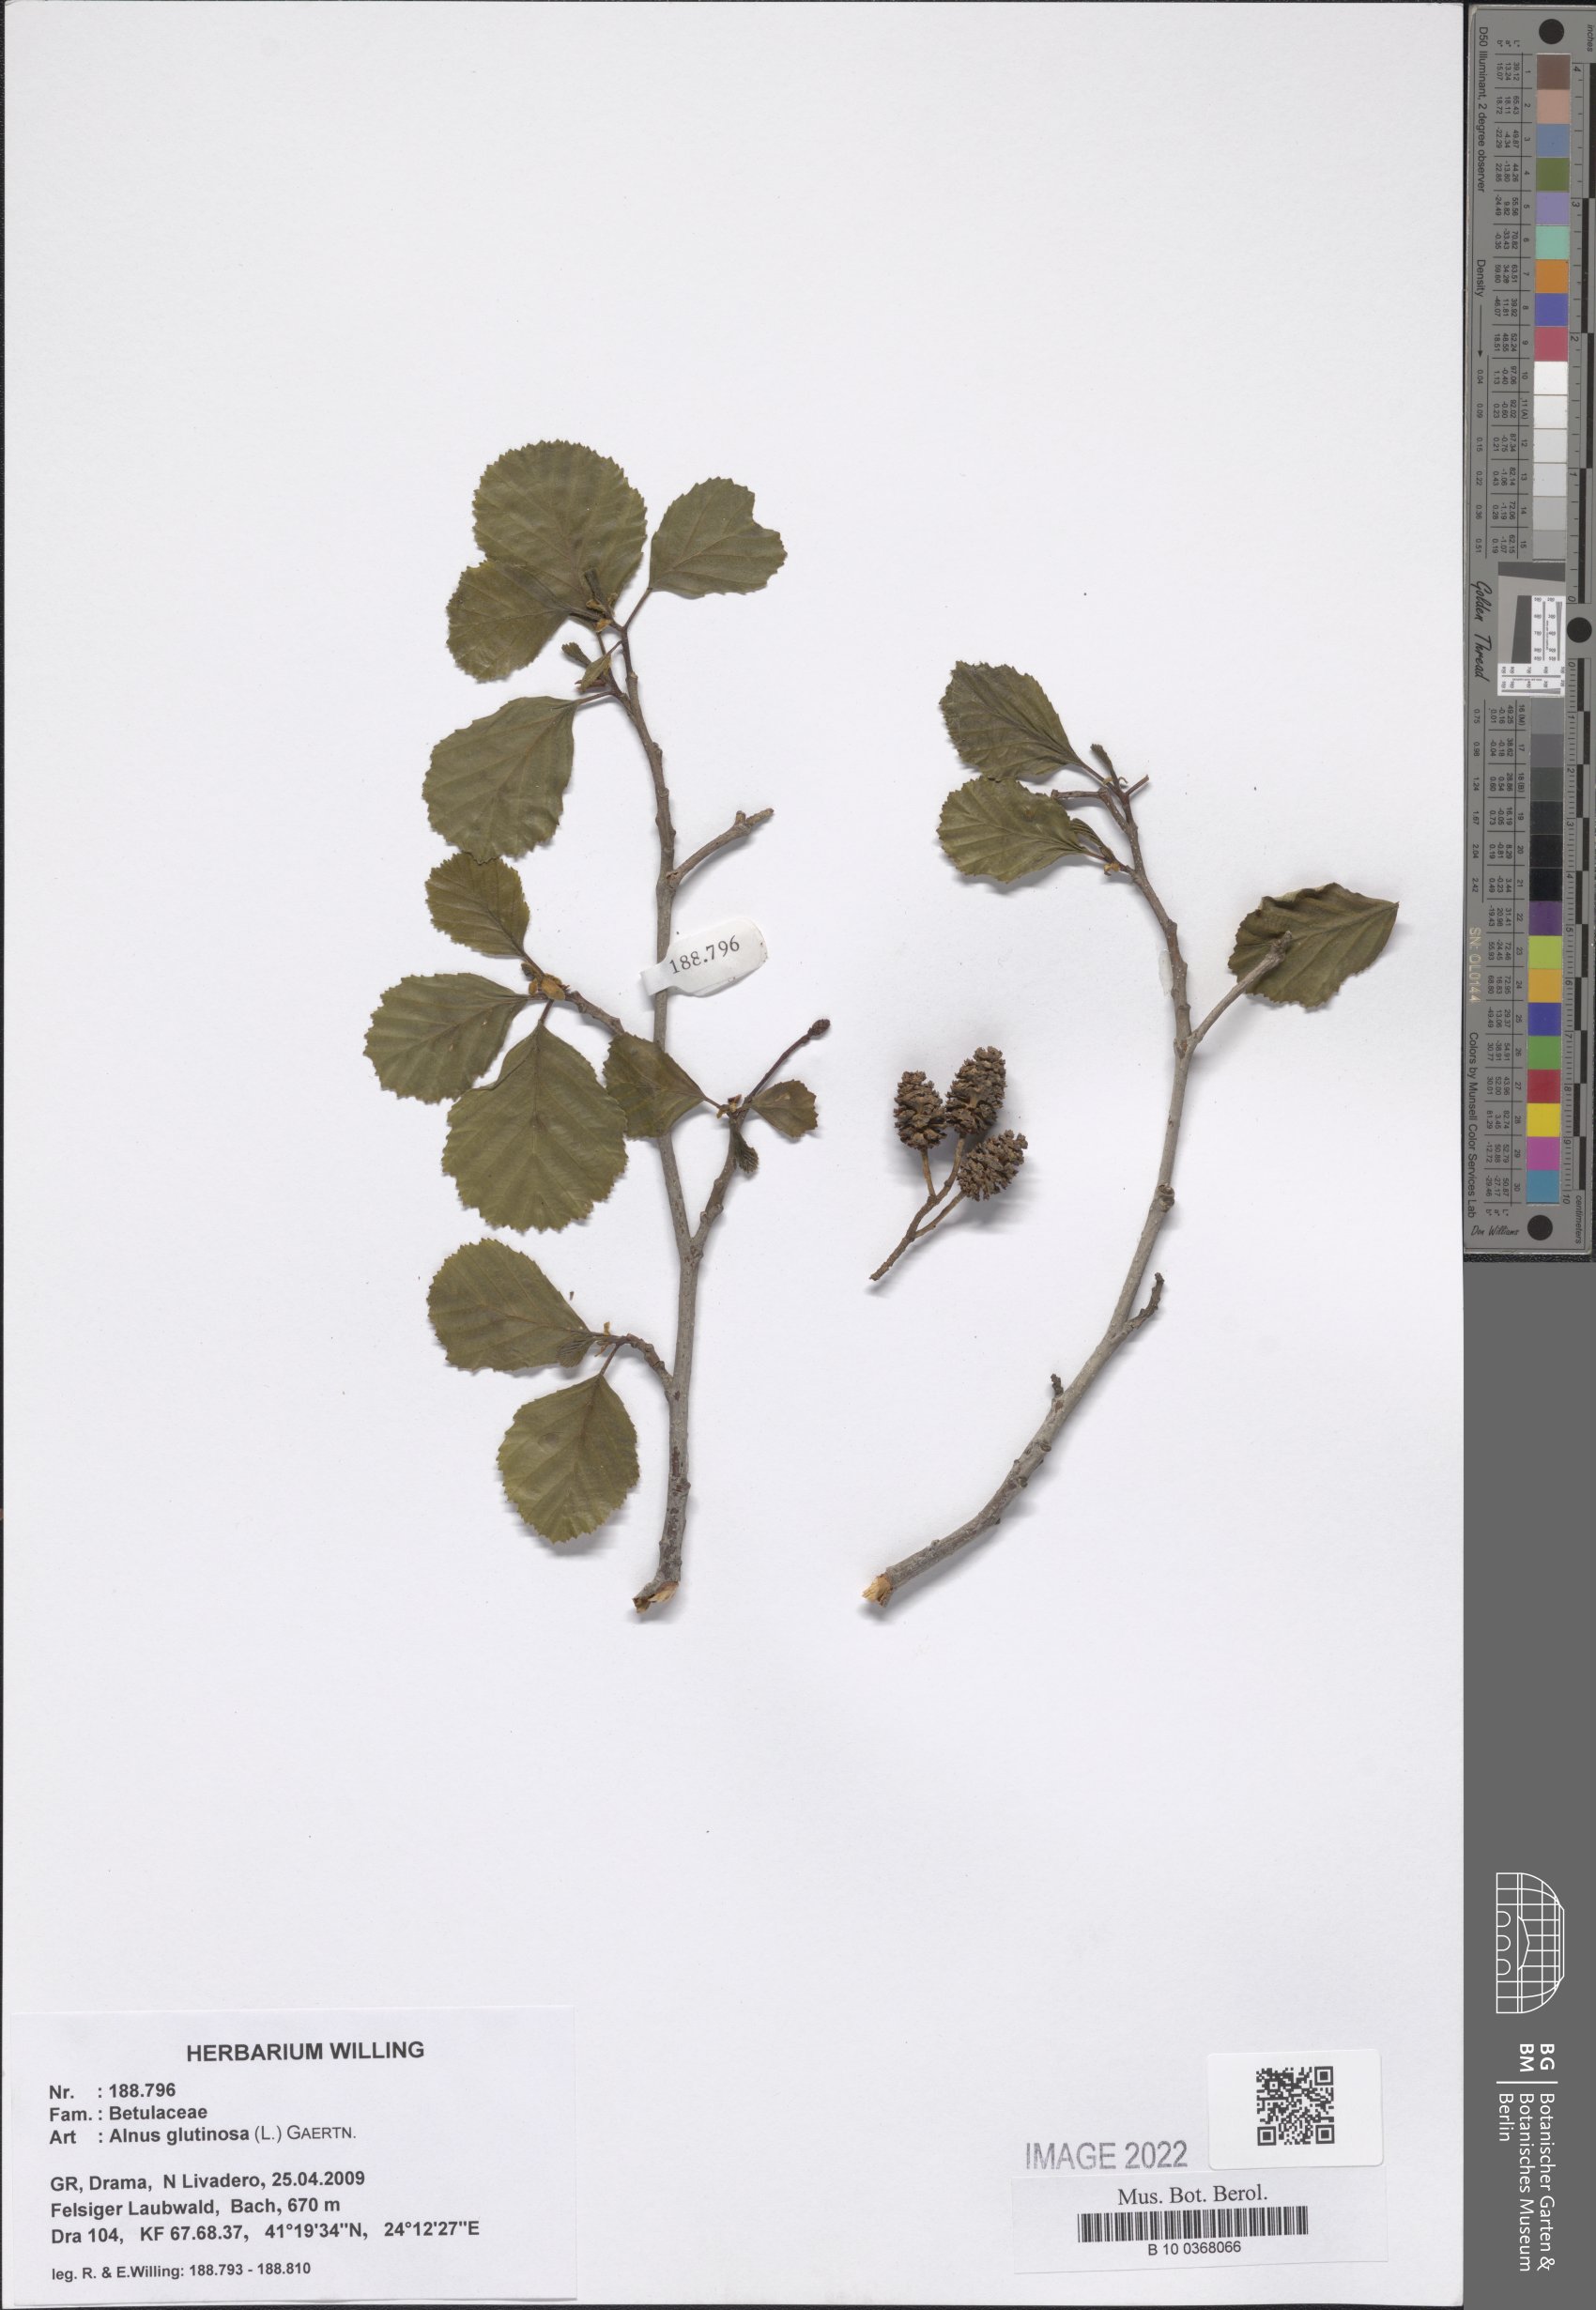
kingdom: Plantae
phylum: Tracheophyta
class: Magnoliopsida
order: Fagales
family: Betulaceae
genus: Alnus
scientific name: Alnus glutinosa
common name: Black alder
